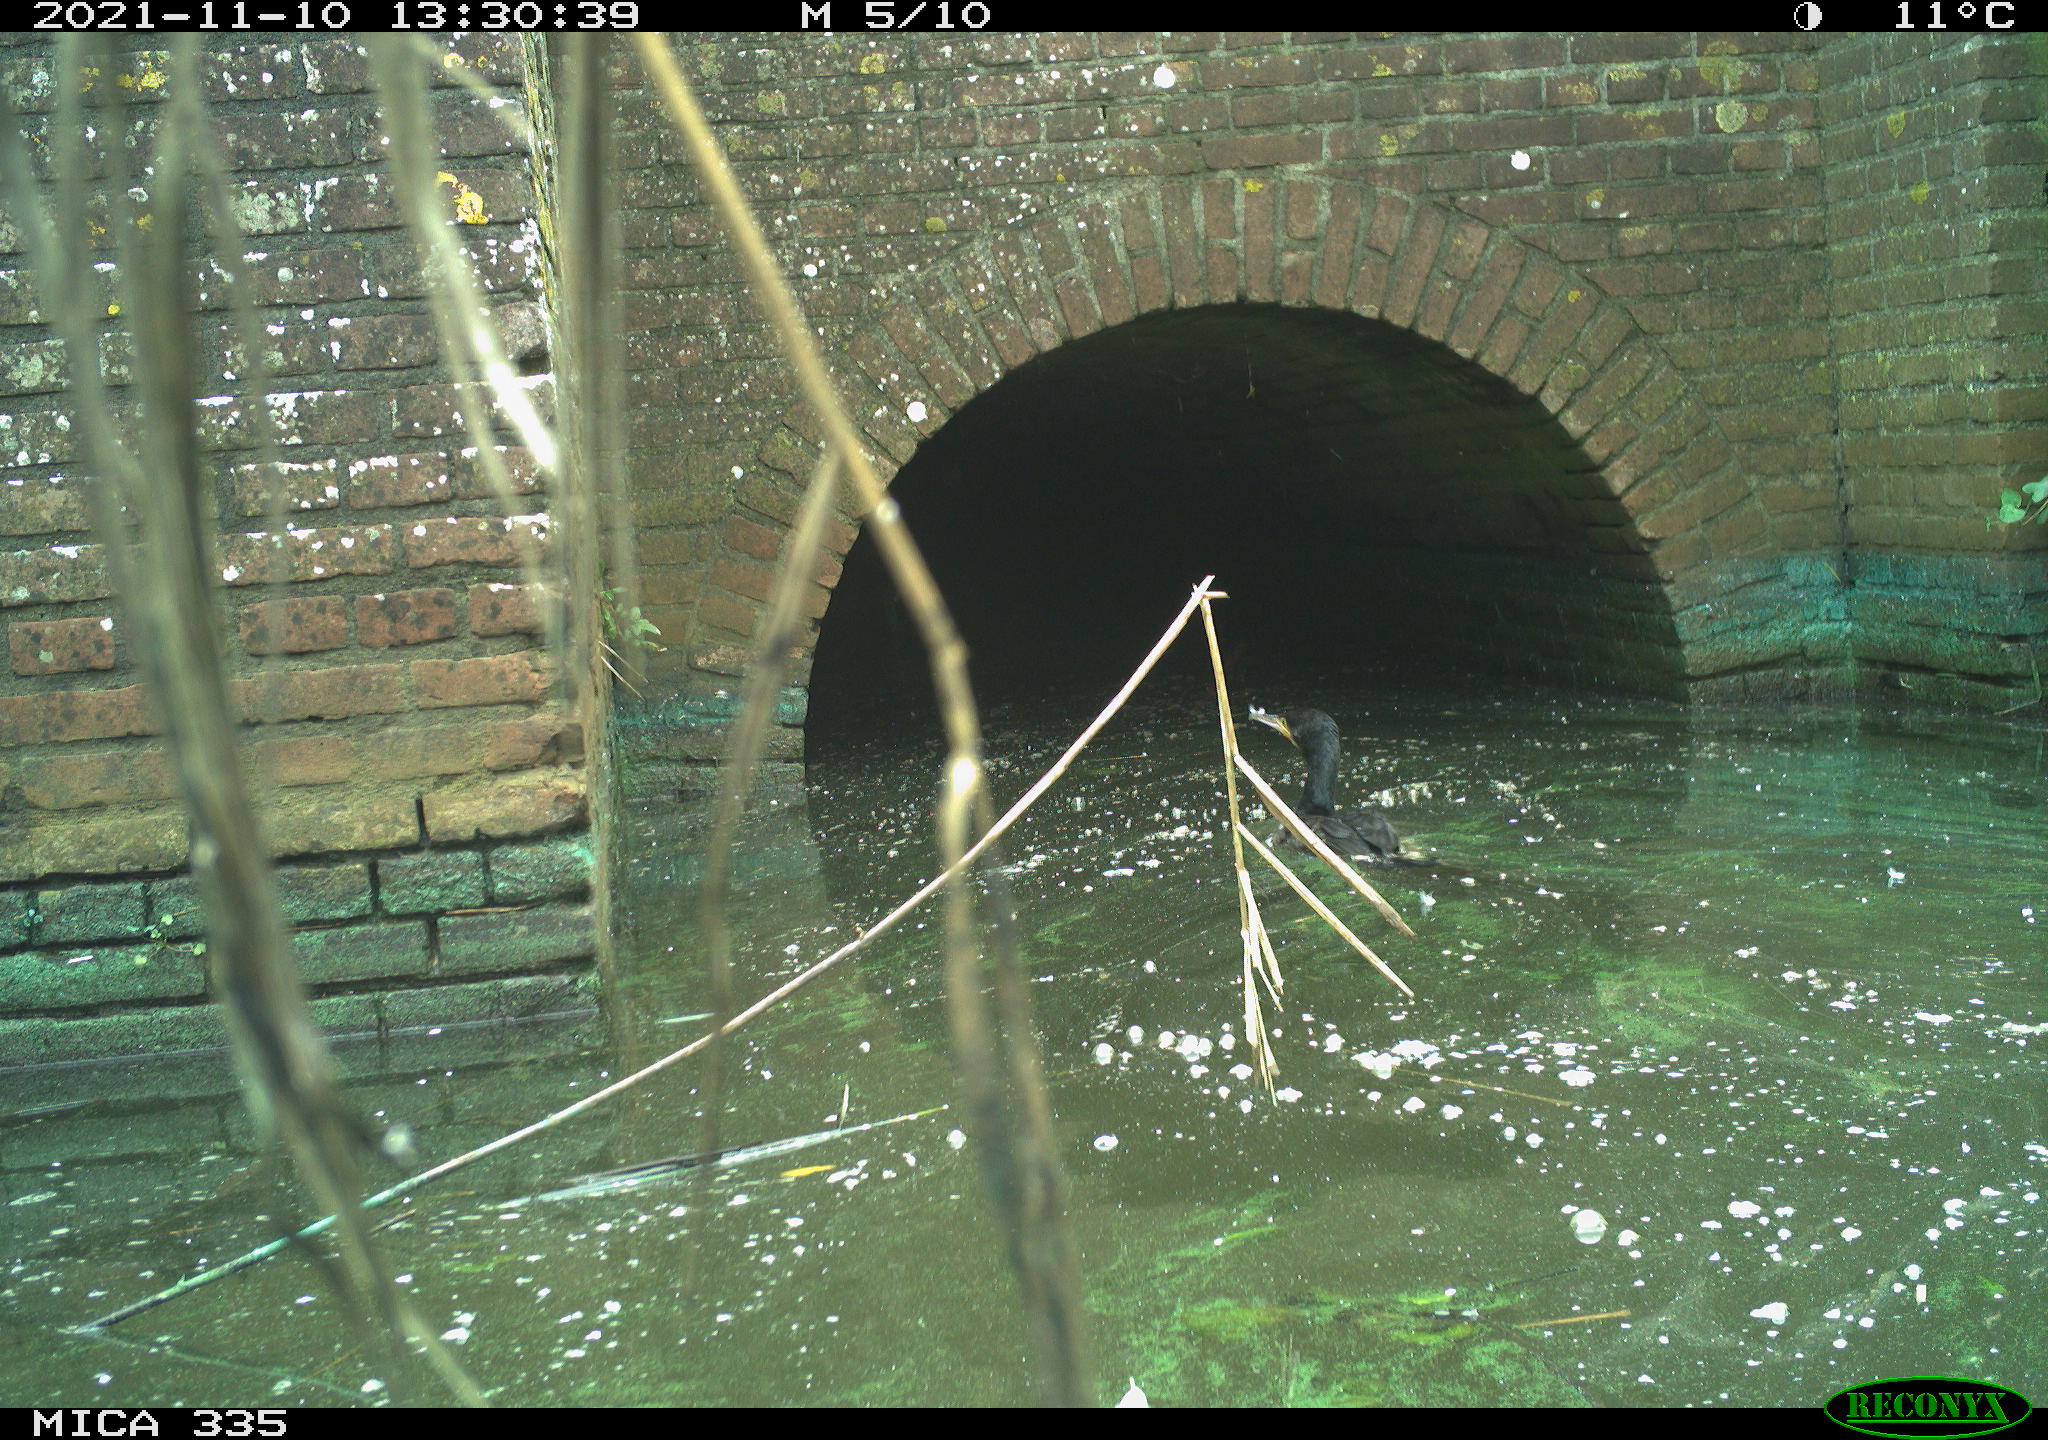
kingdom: Animalia
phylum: Chordata
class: Aves
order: Suliformes
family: Phalacrocoracidae
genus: Phalacrocorax
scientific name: Phalacrocorax carbo
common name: Great cormorant
